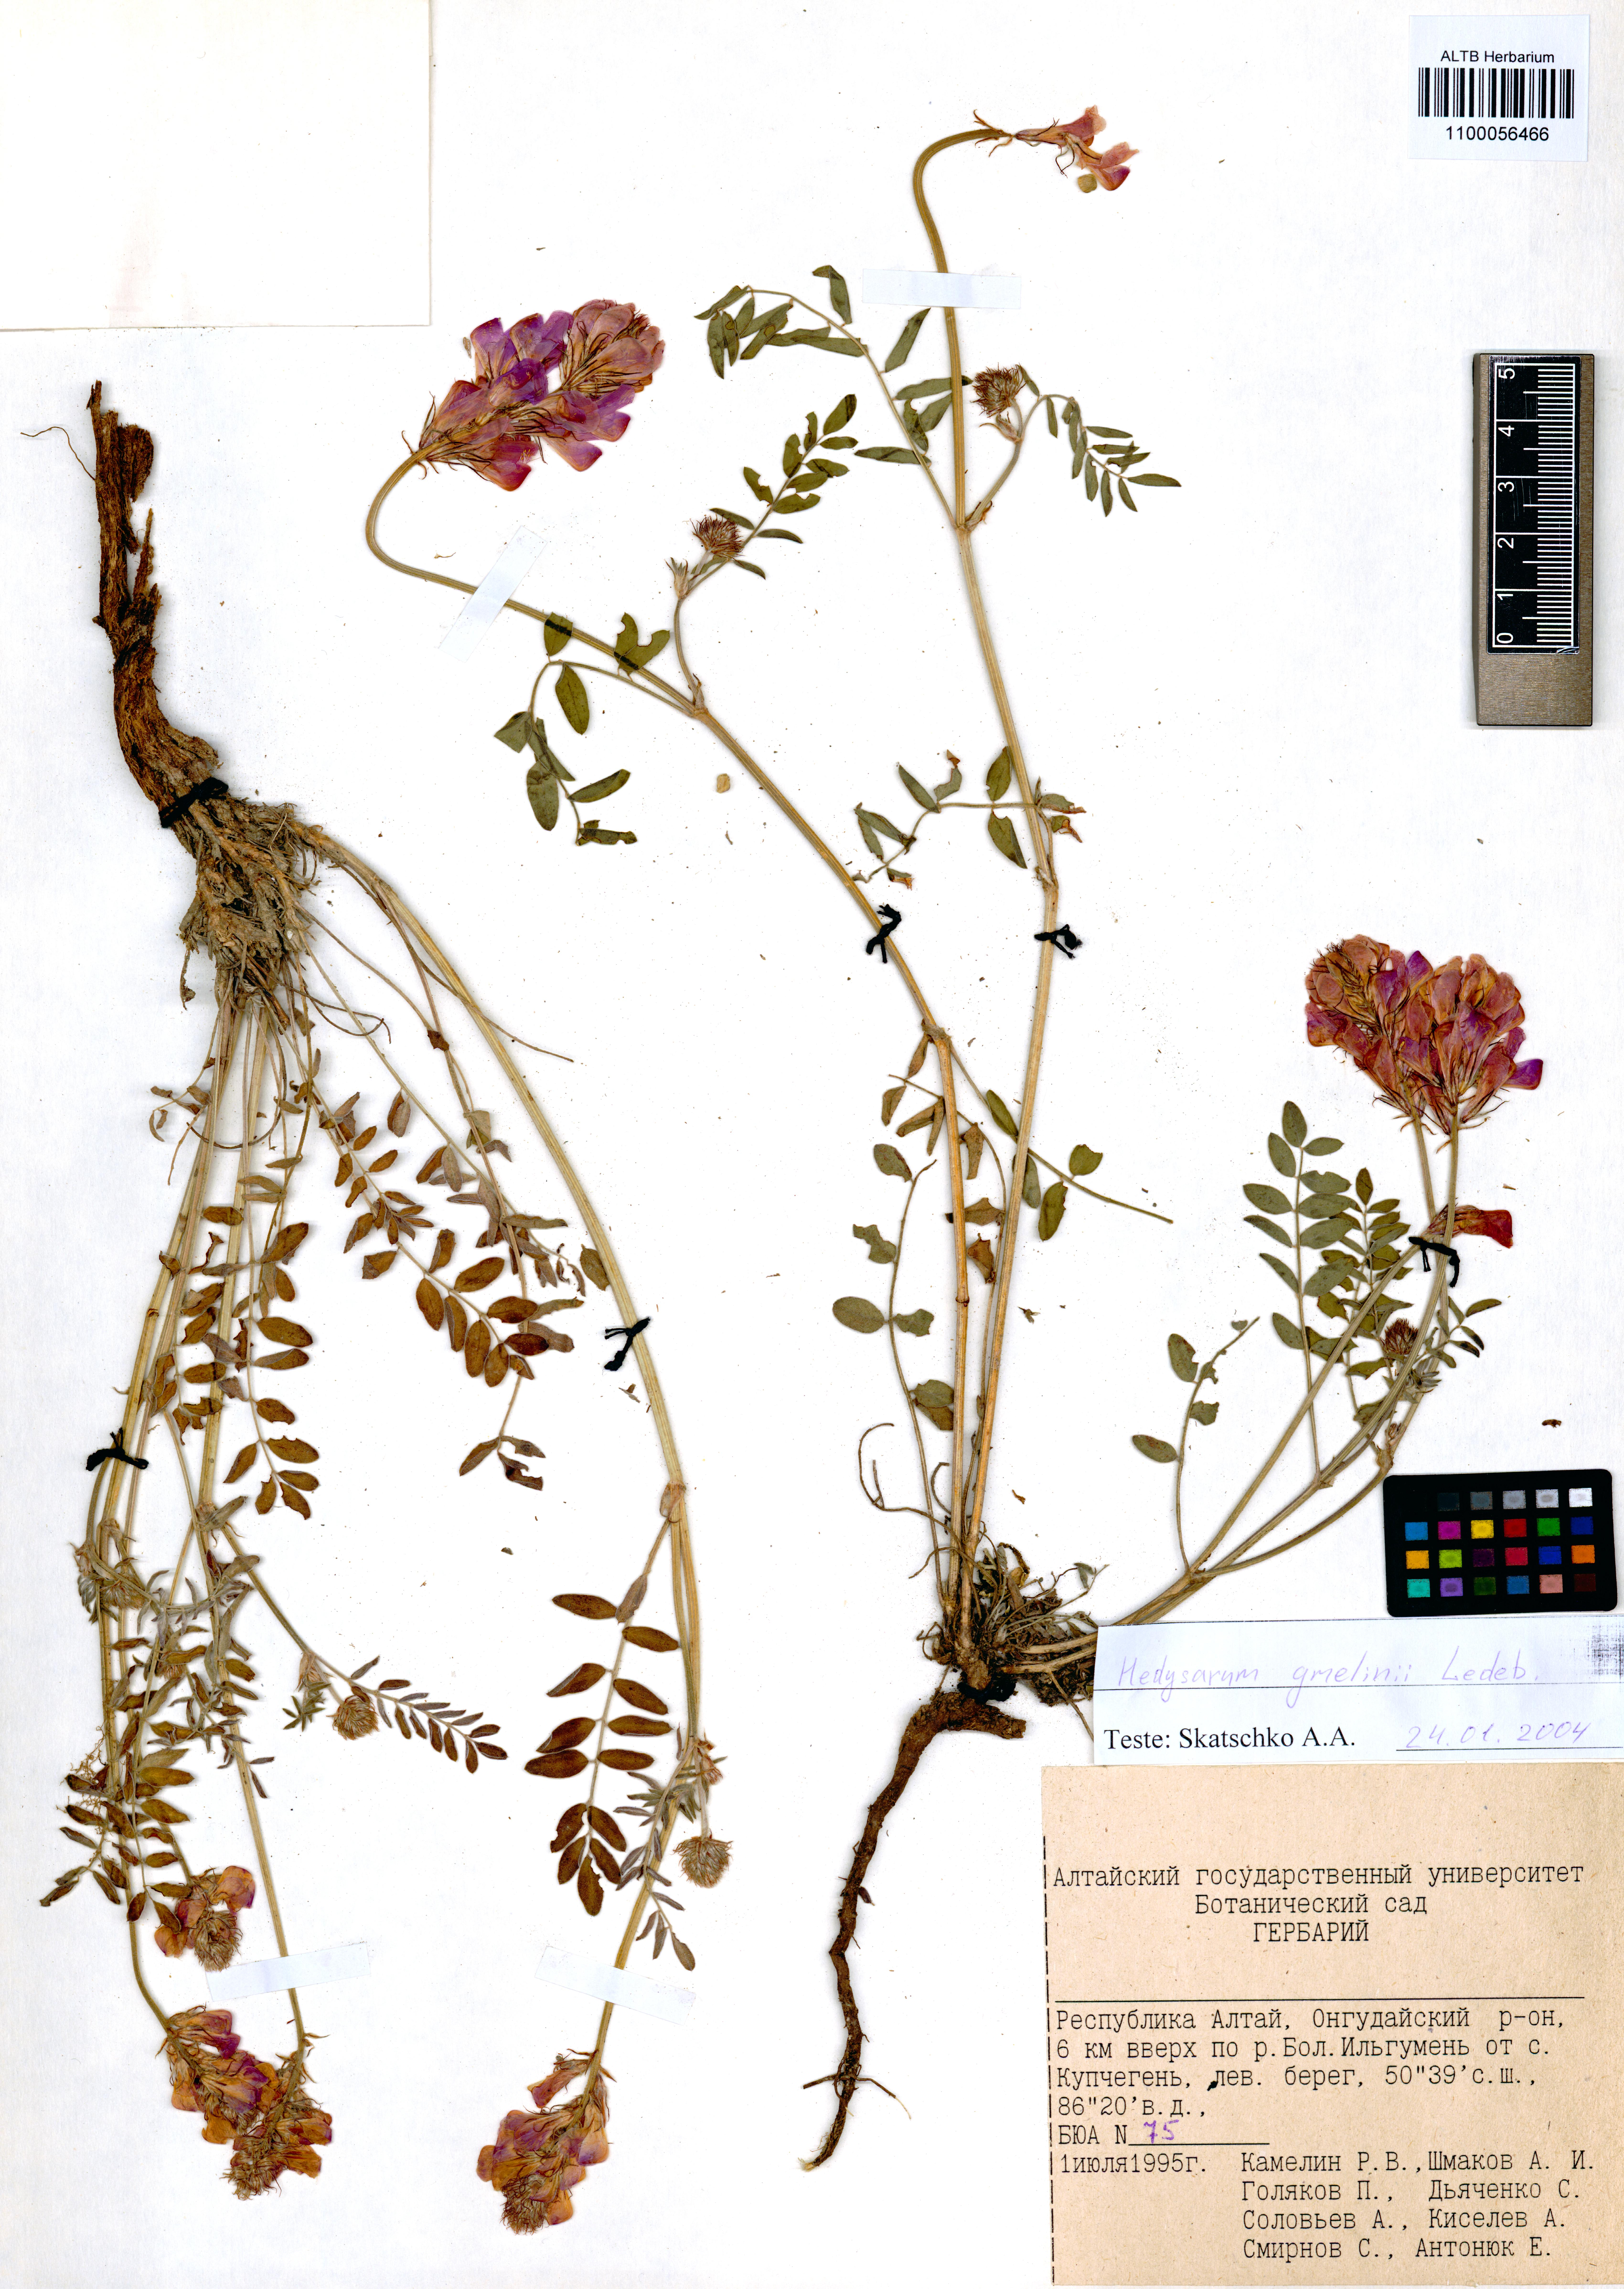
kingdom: Plantae
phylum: Tracheophyta
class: Magnoliopsida
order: Fabales
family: Fabaceae
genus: Hedysarum
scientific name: Hedysarum gmelinii
